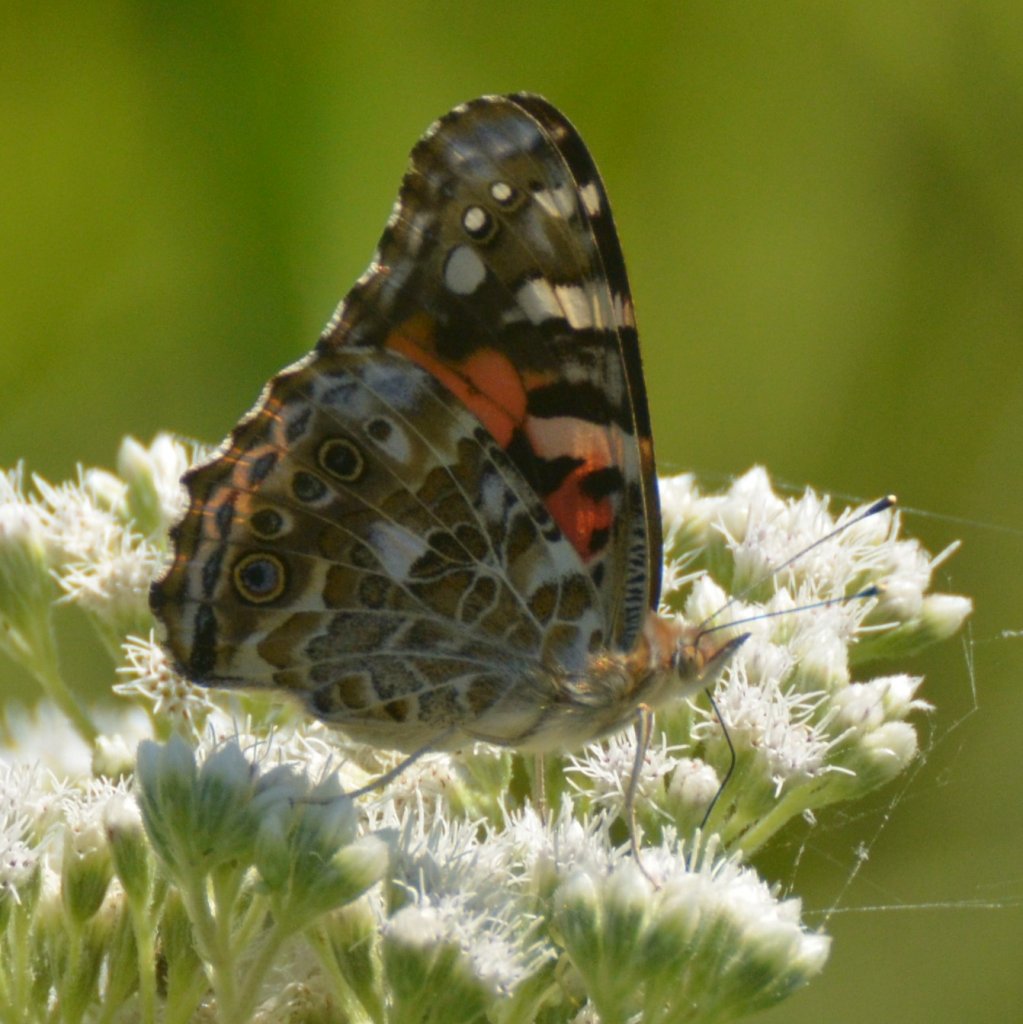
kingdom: Animalia
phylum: Arthropoda
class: Insecta
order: Lepidoptera
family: Nymphalidae
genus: Vanessa
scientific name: Vanessa cardui
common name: Painted Lady
